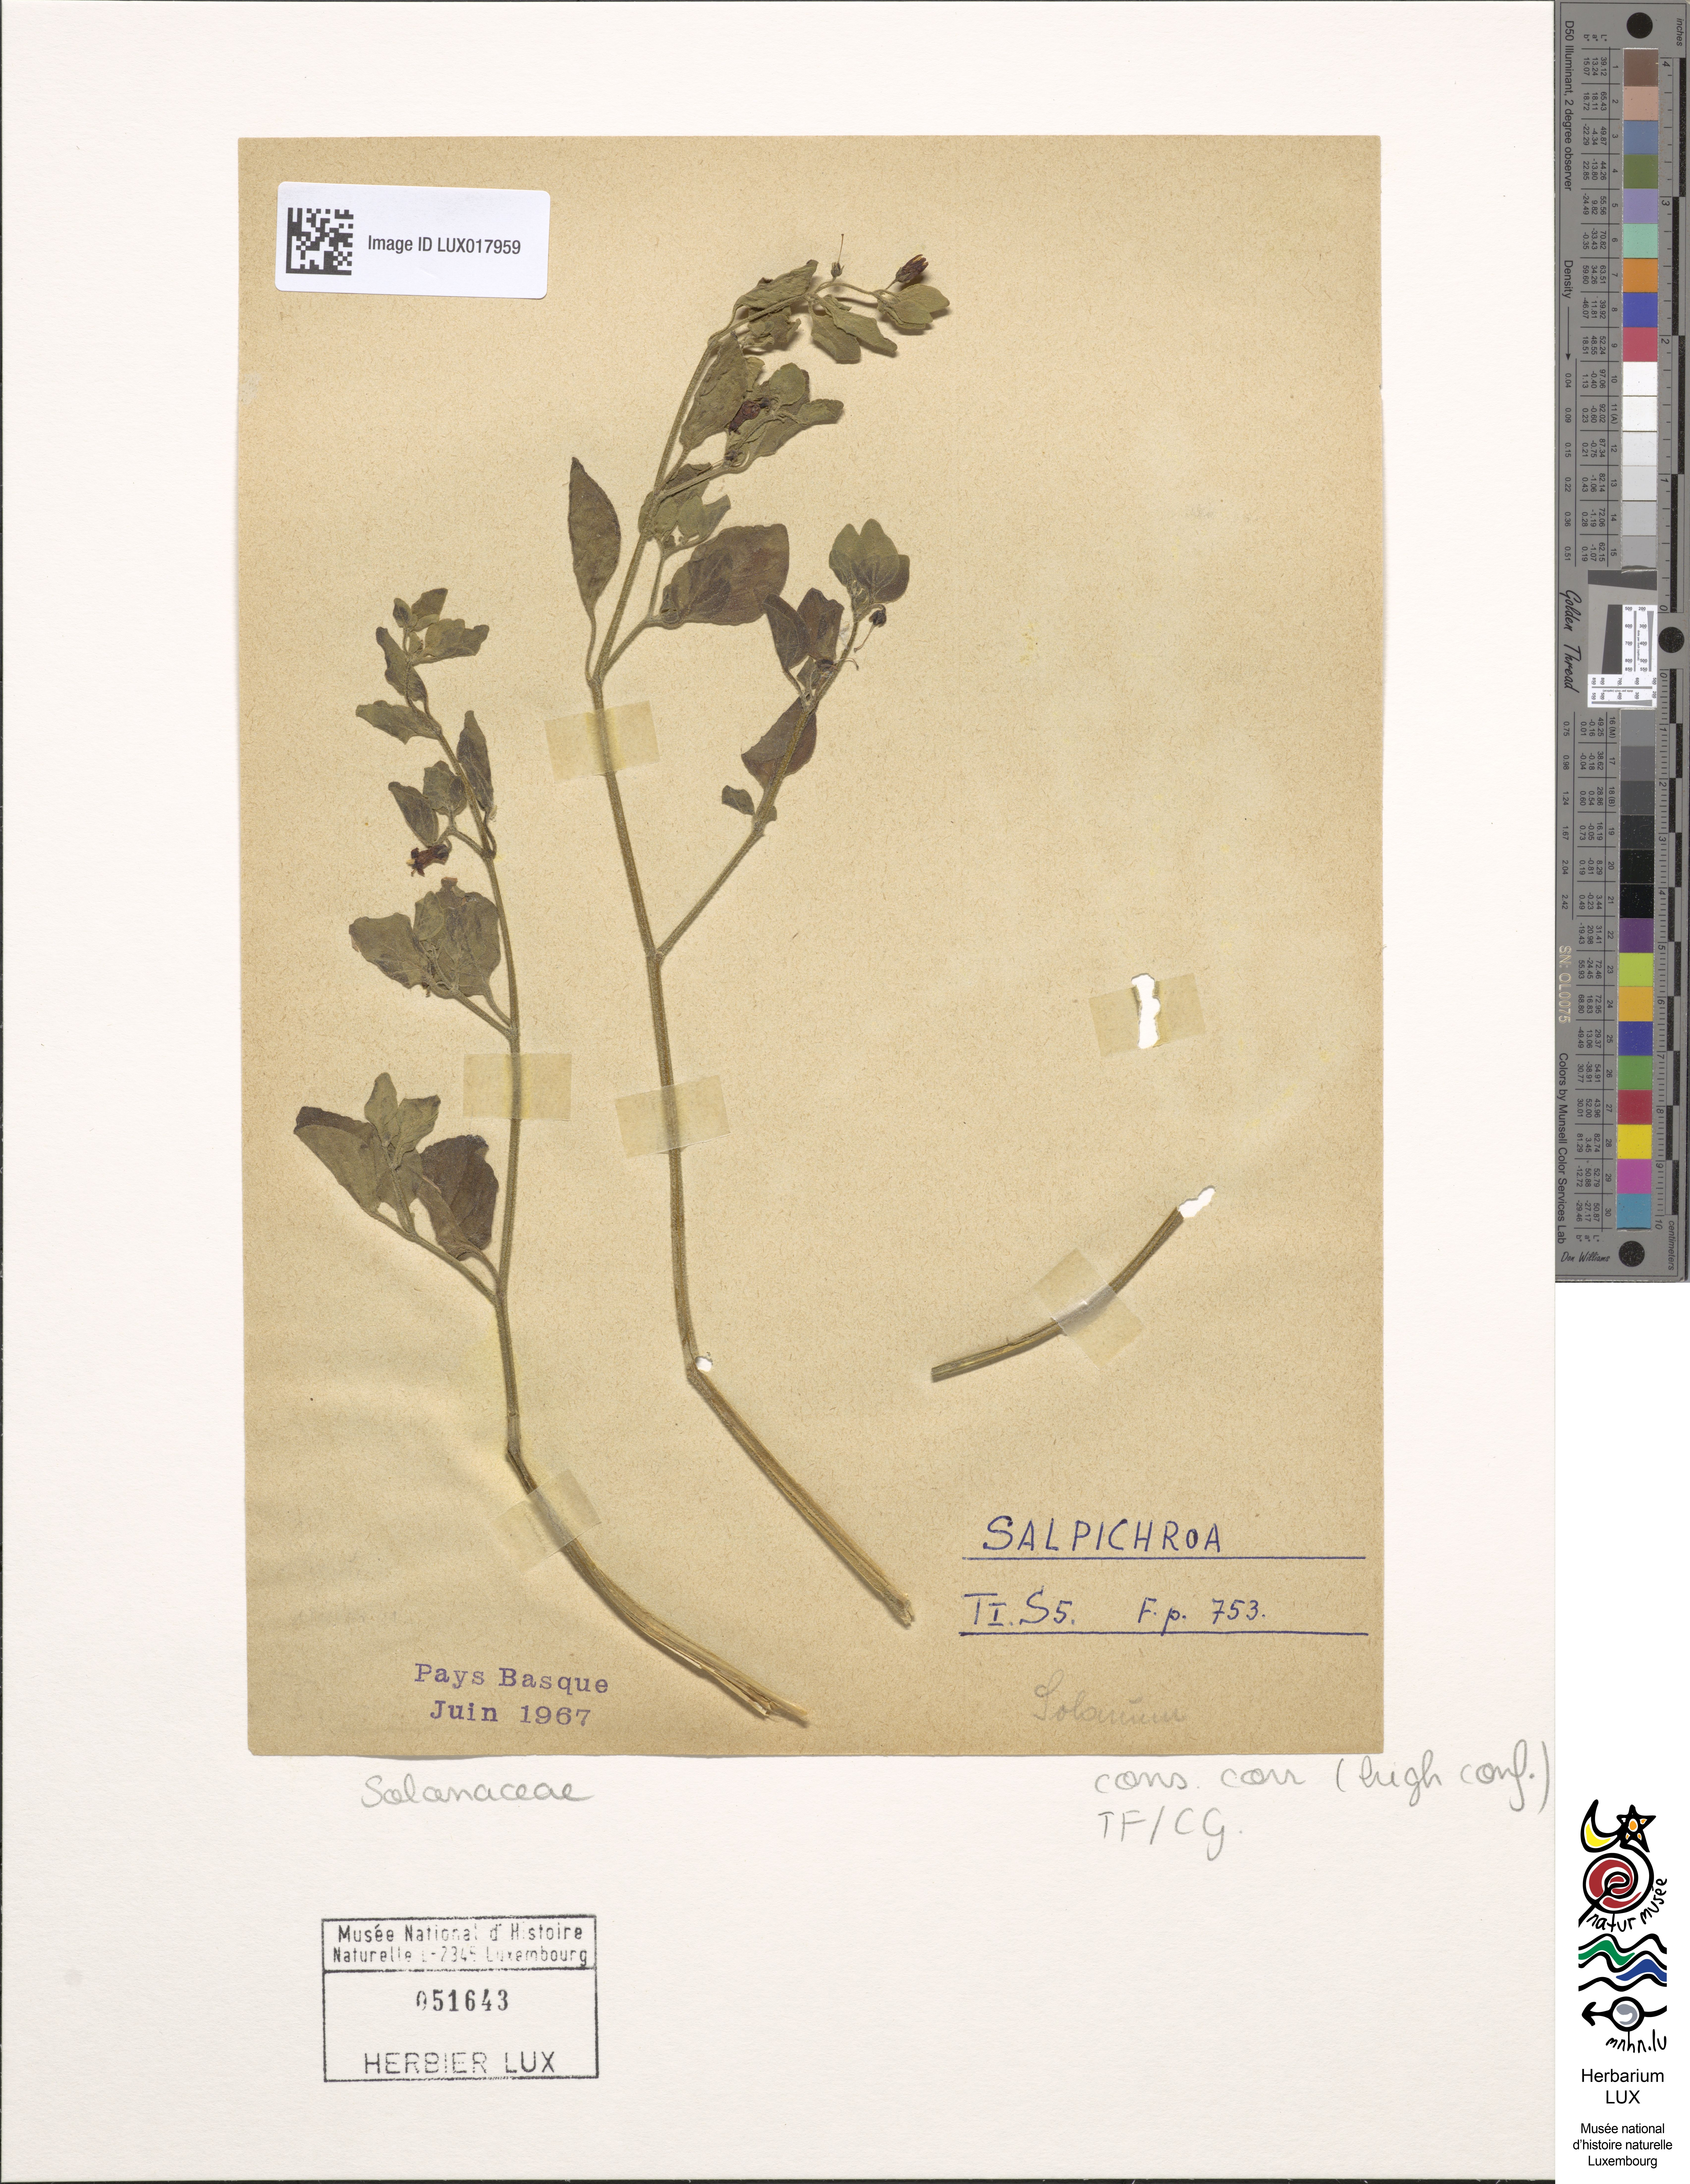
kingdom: Plantae
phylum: Tracheophyta
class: Magnoliopsida
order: Solanales
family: Solanaceae
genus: Salpichroa
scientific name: Salpichroa
